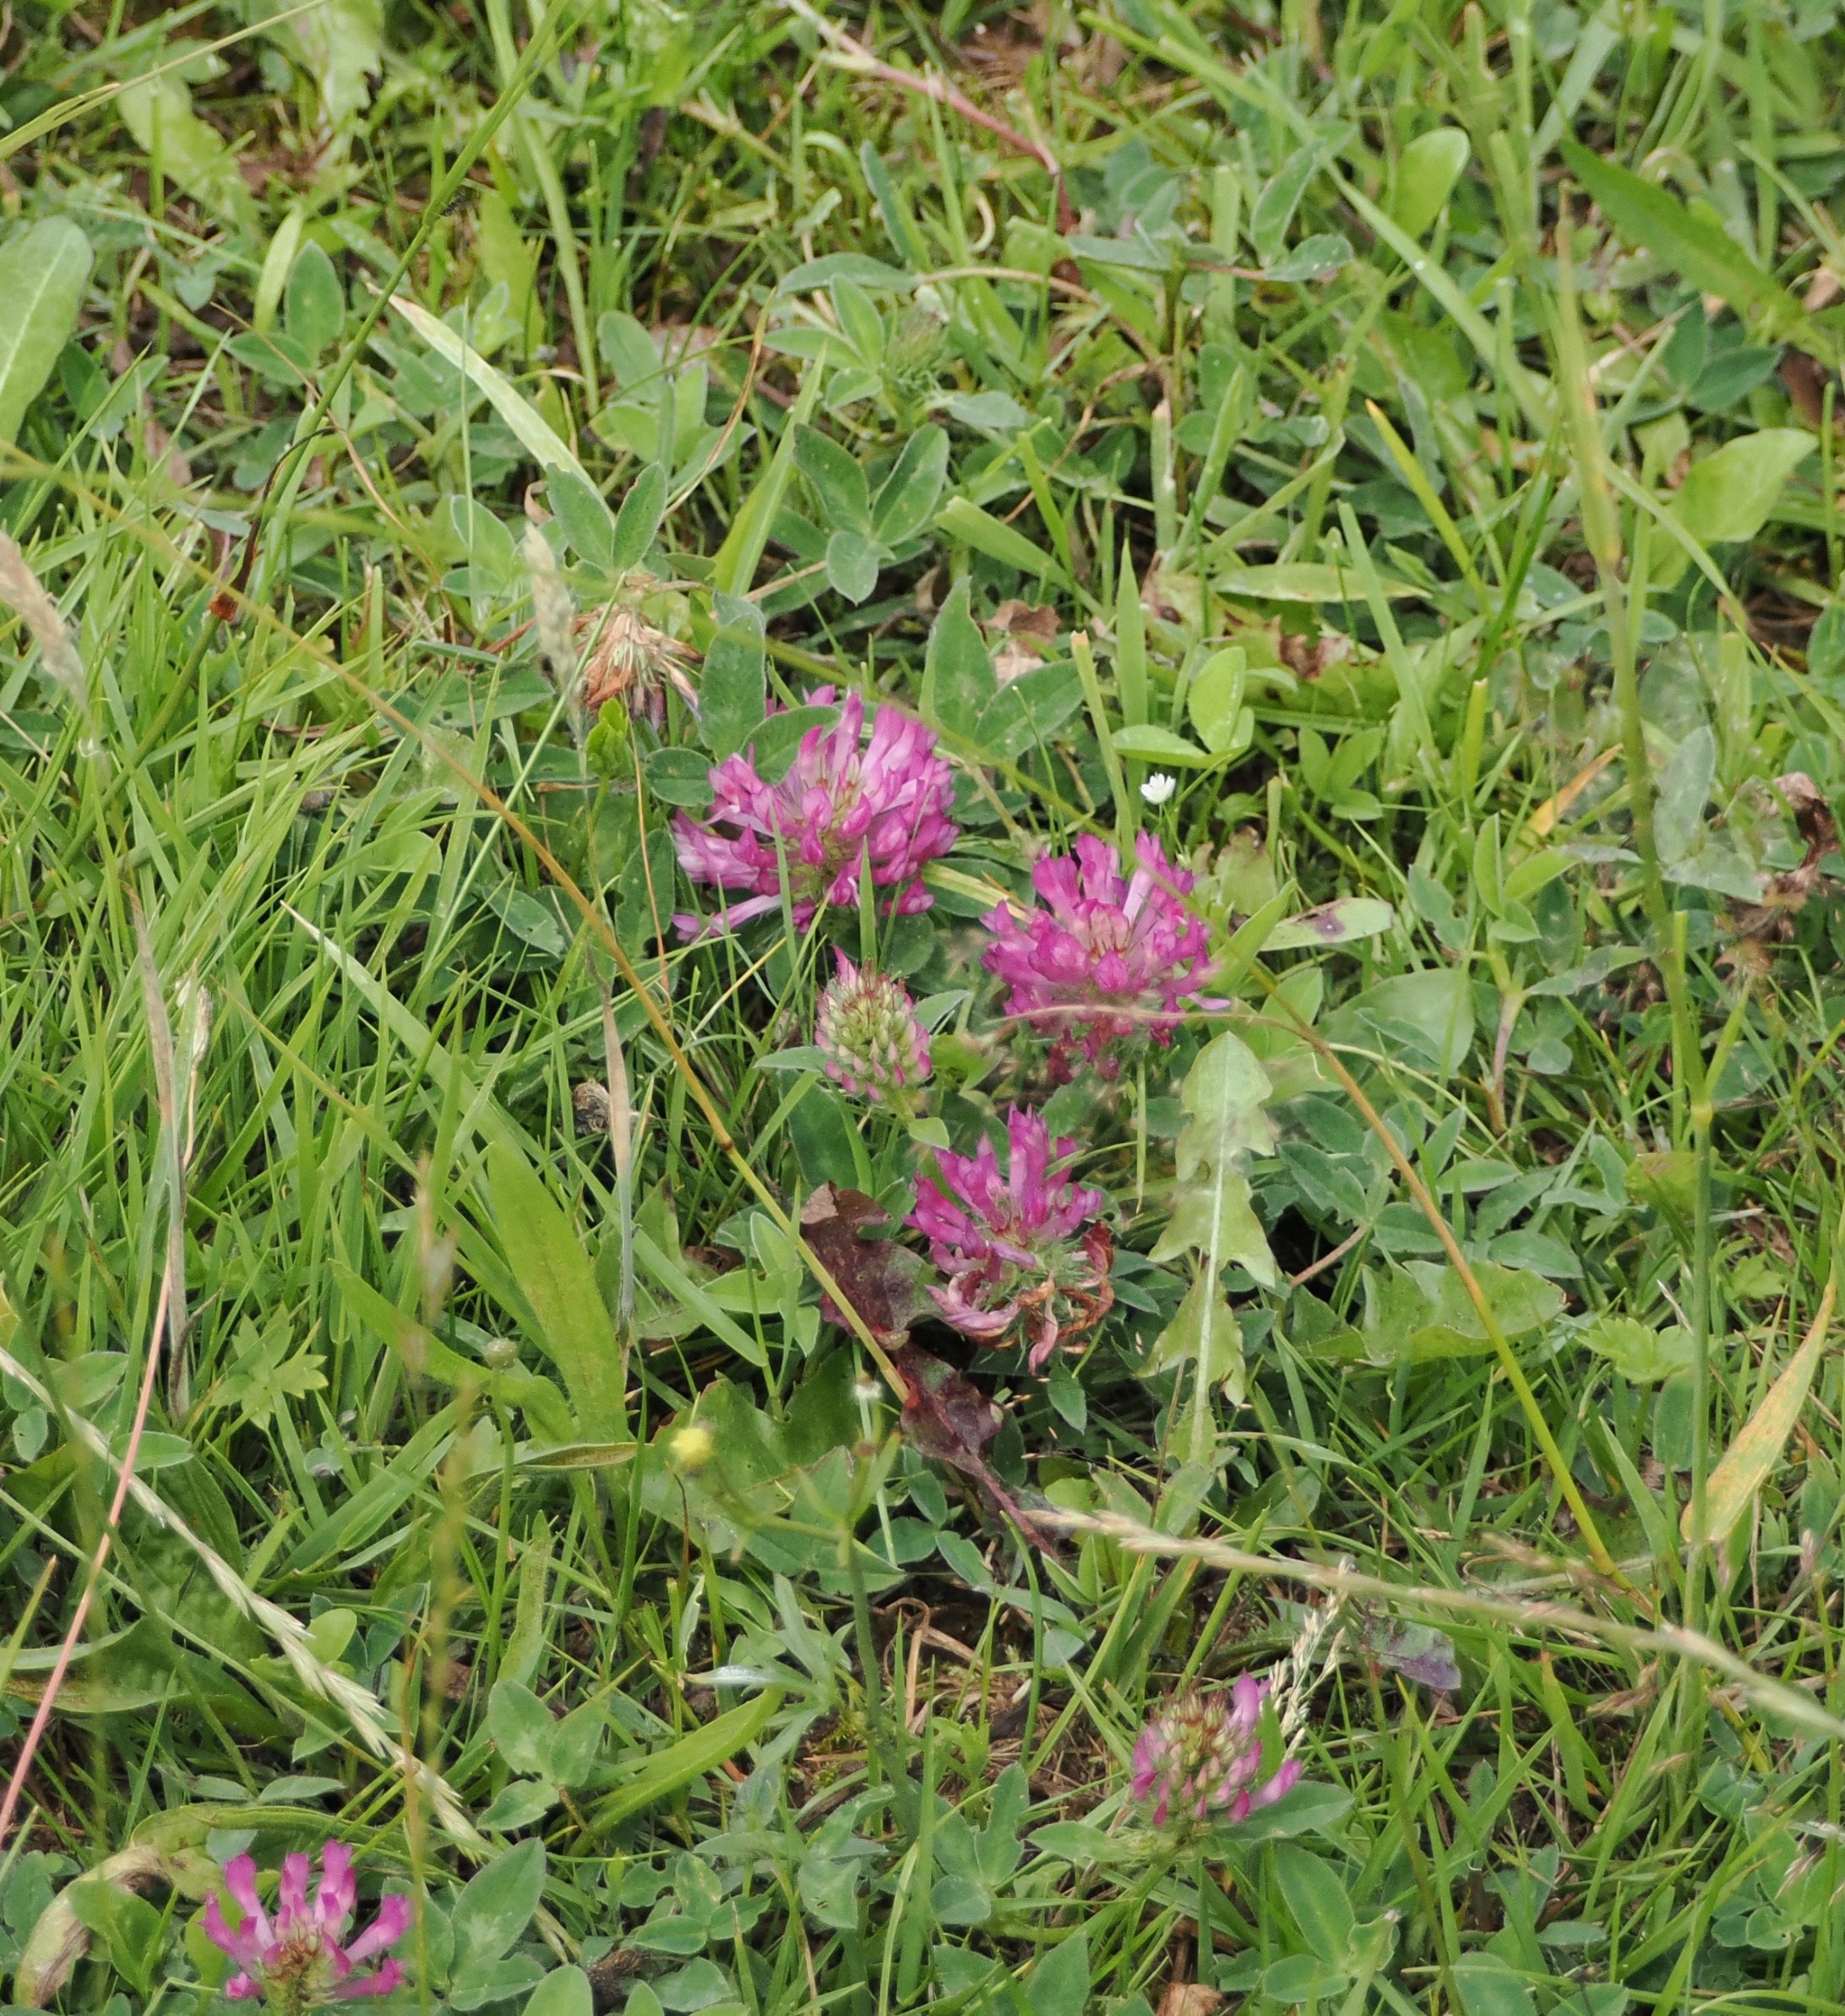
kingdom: Plantae
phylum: Tracheophyta
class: Magnoliopsida
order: Fabales
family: Fabaceae
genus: Trifolium
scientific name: Trifolium pratense
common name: Rød-kløver
